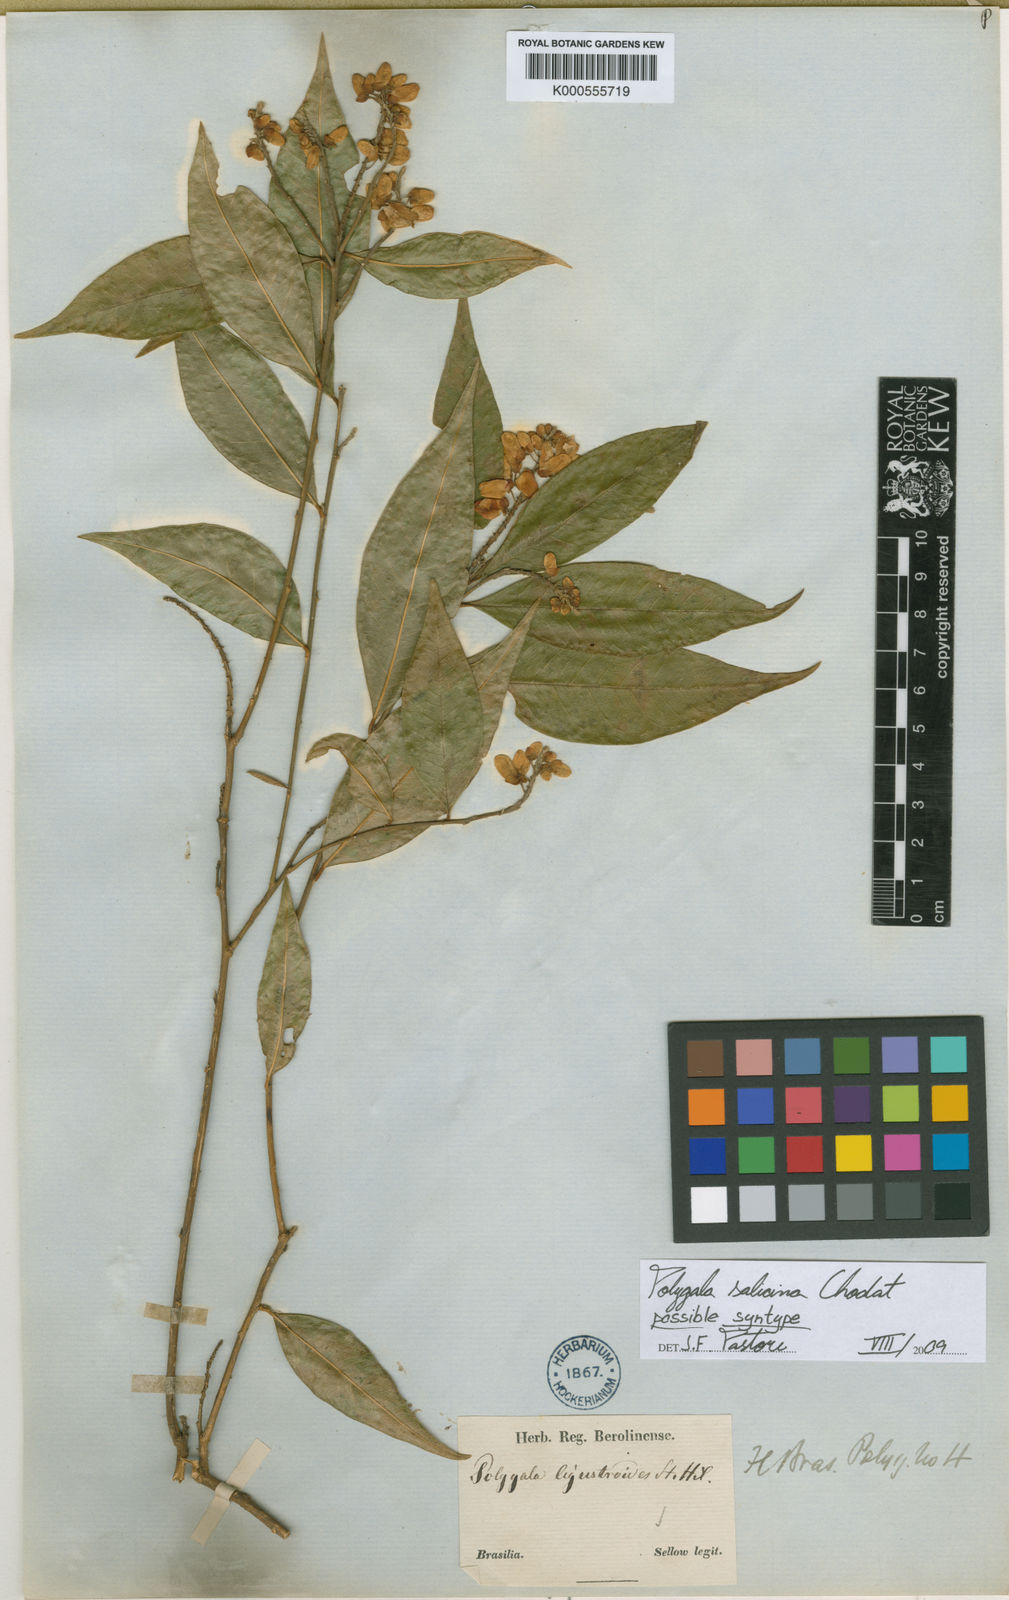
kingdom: Plantae
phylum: Tracheophyta
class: Magnoliopsida
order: Fabales
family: Polygalaceae
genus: Caamembeca
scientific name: Caamembeca oxyphylla
